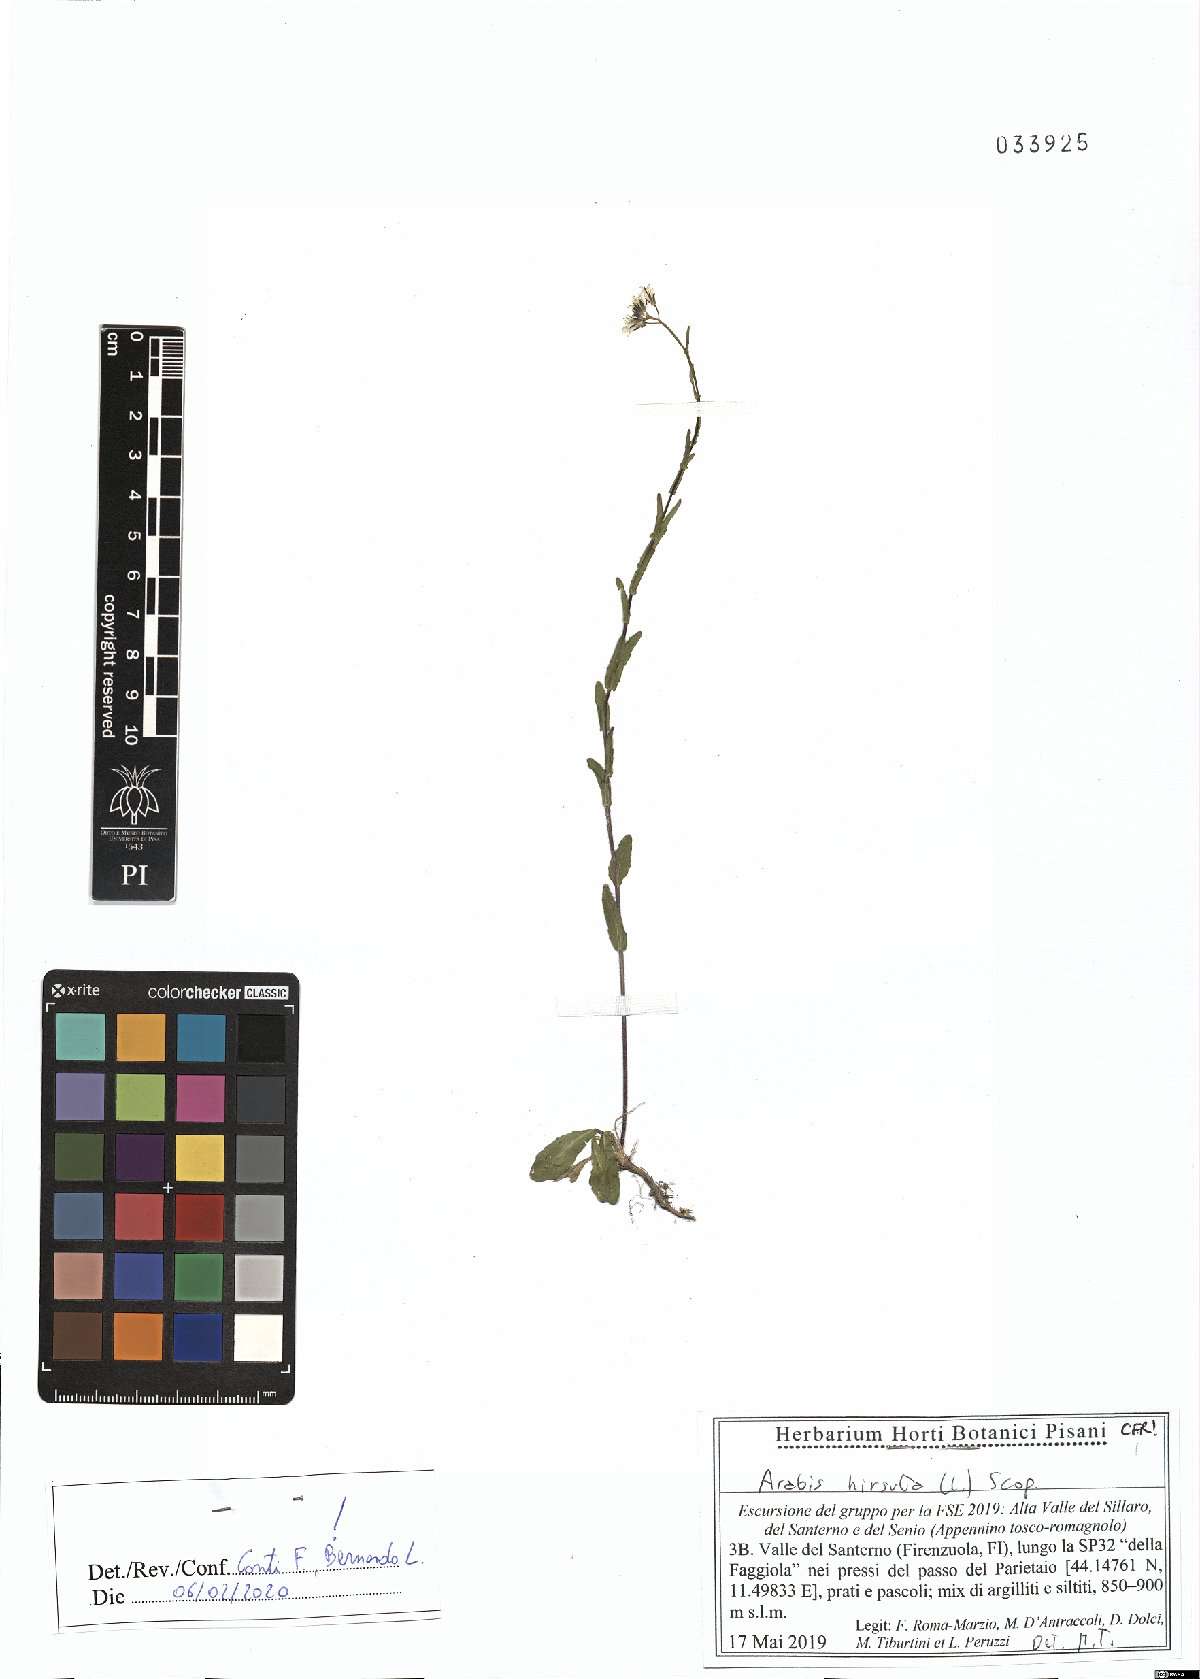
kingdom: Plantae
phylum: Tracheophyta
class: Magnoliopsida
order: Brassicales
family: Brassicaceae
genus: Arabis
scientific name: Arabis hirsuta
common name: Hairy rock-cress
